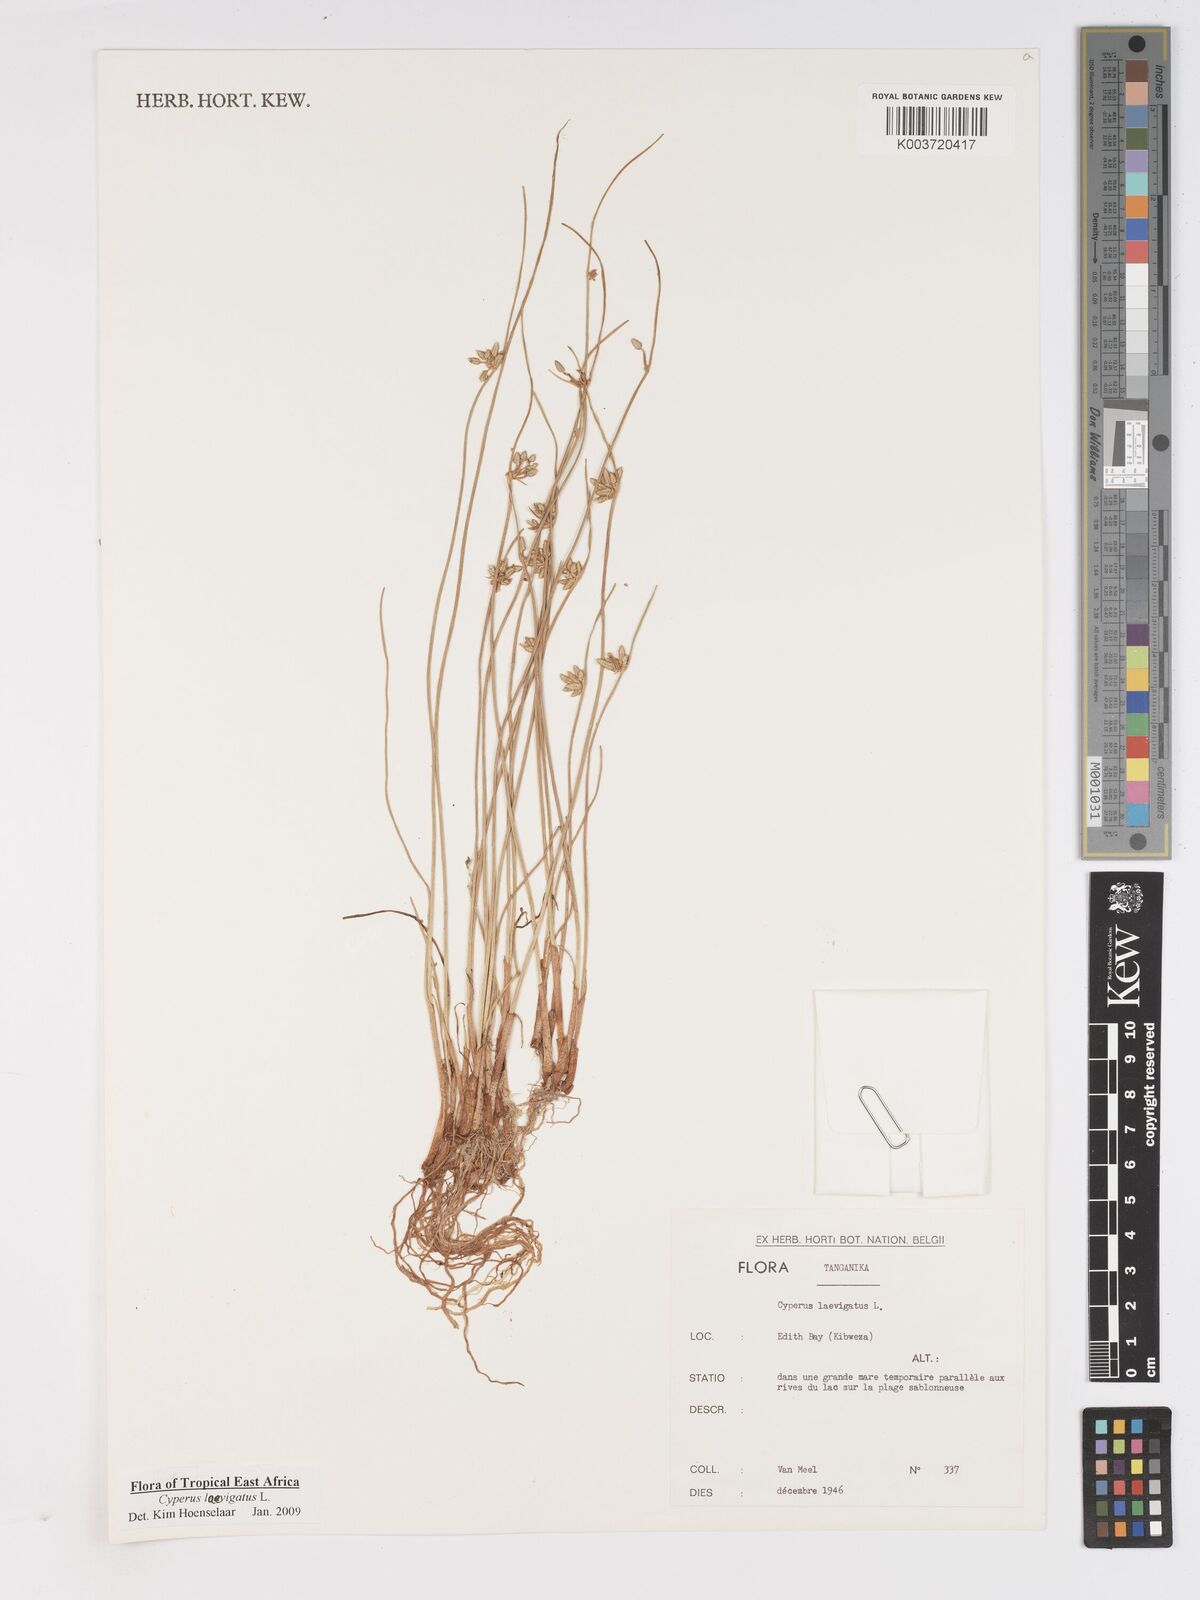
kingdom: Plantae
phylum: Tracheophyta
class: Liliopsida
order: Poales
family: Cyperaceae
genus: Cyperus
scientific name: Cyperus laevigatus
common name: Smooth flat sedge
